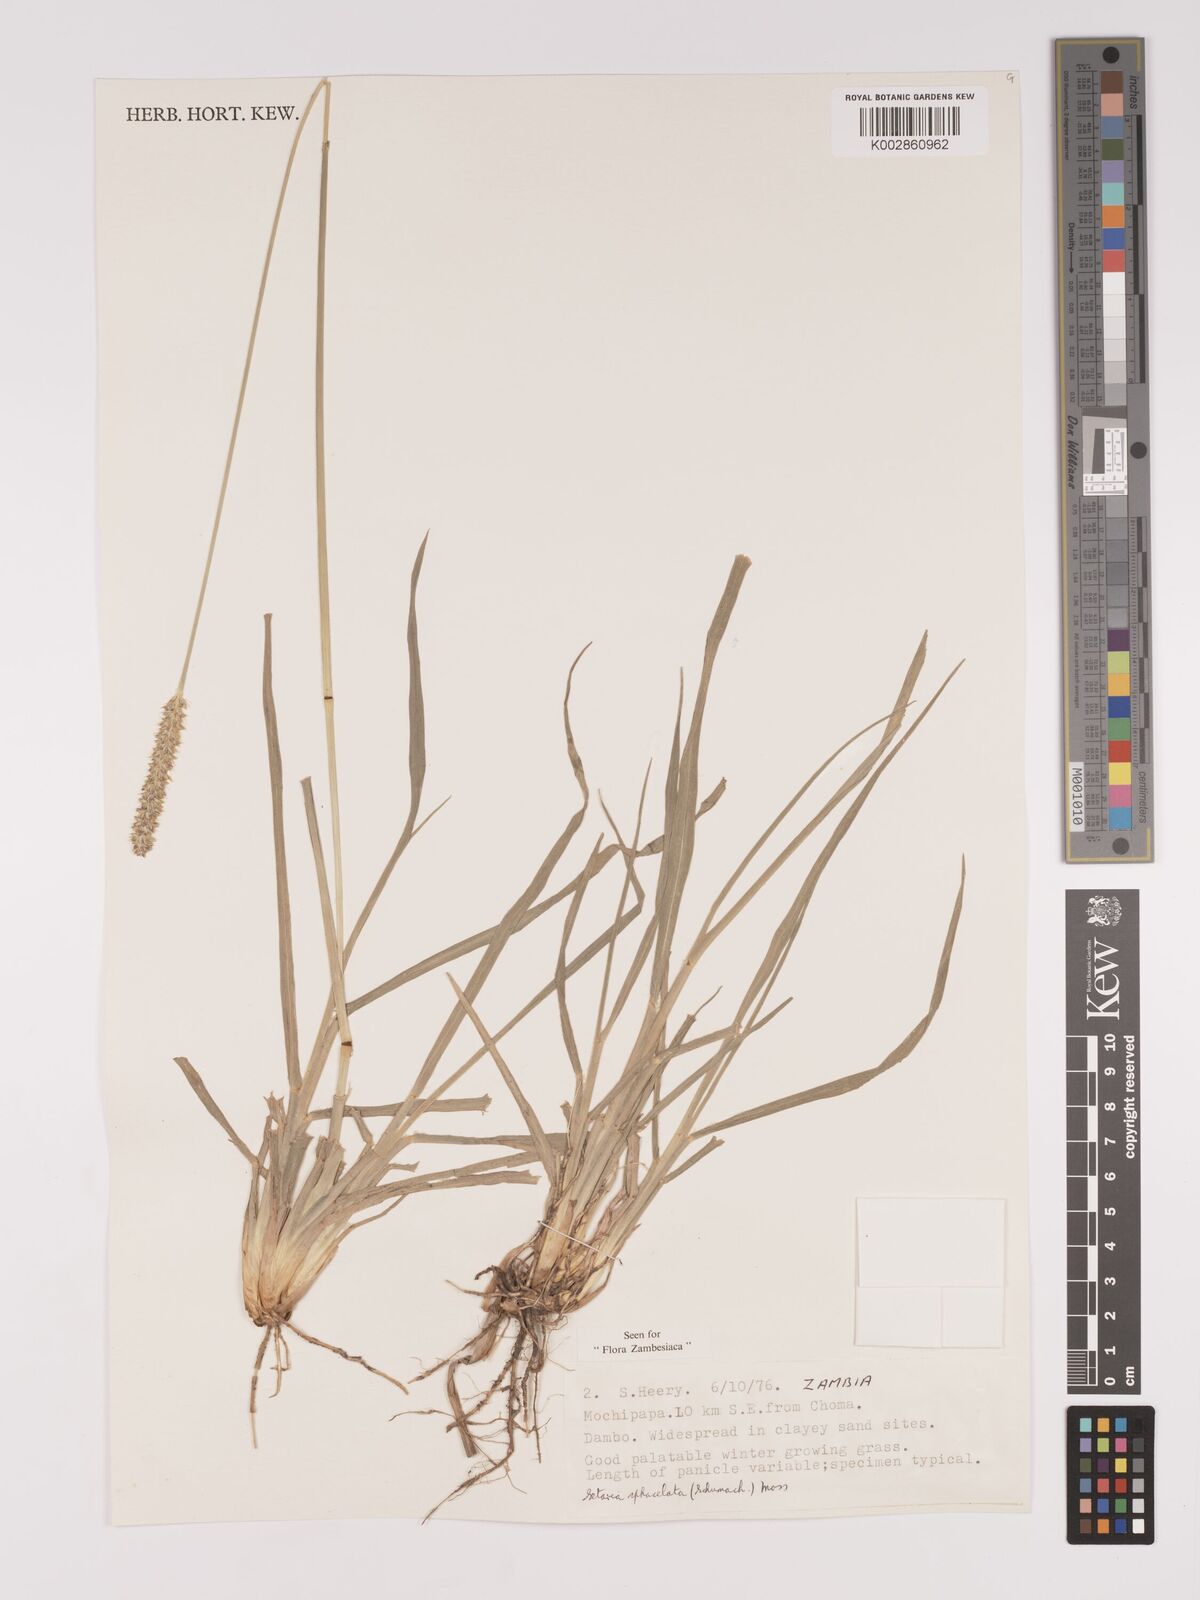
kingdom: Plantae
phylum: Tracheophyta
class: Liliopsida
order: Poales
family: Poaceae
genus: Setaria
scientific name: Setaria
